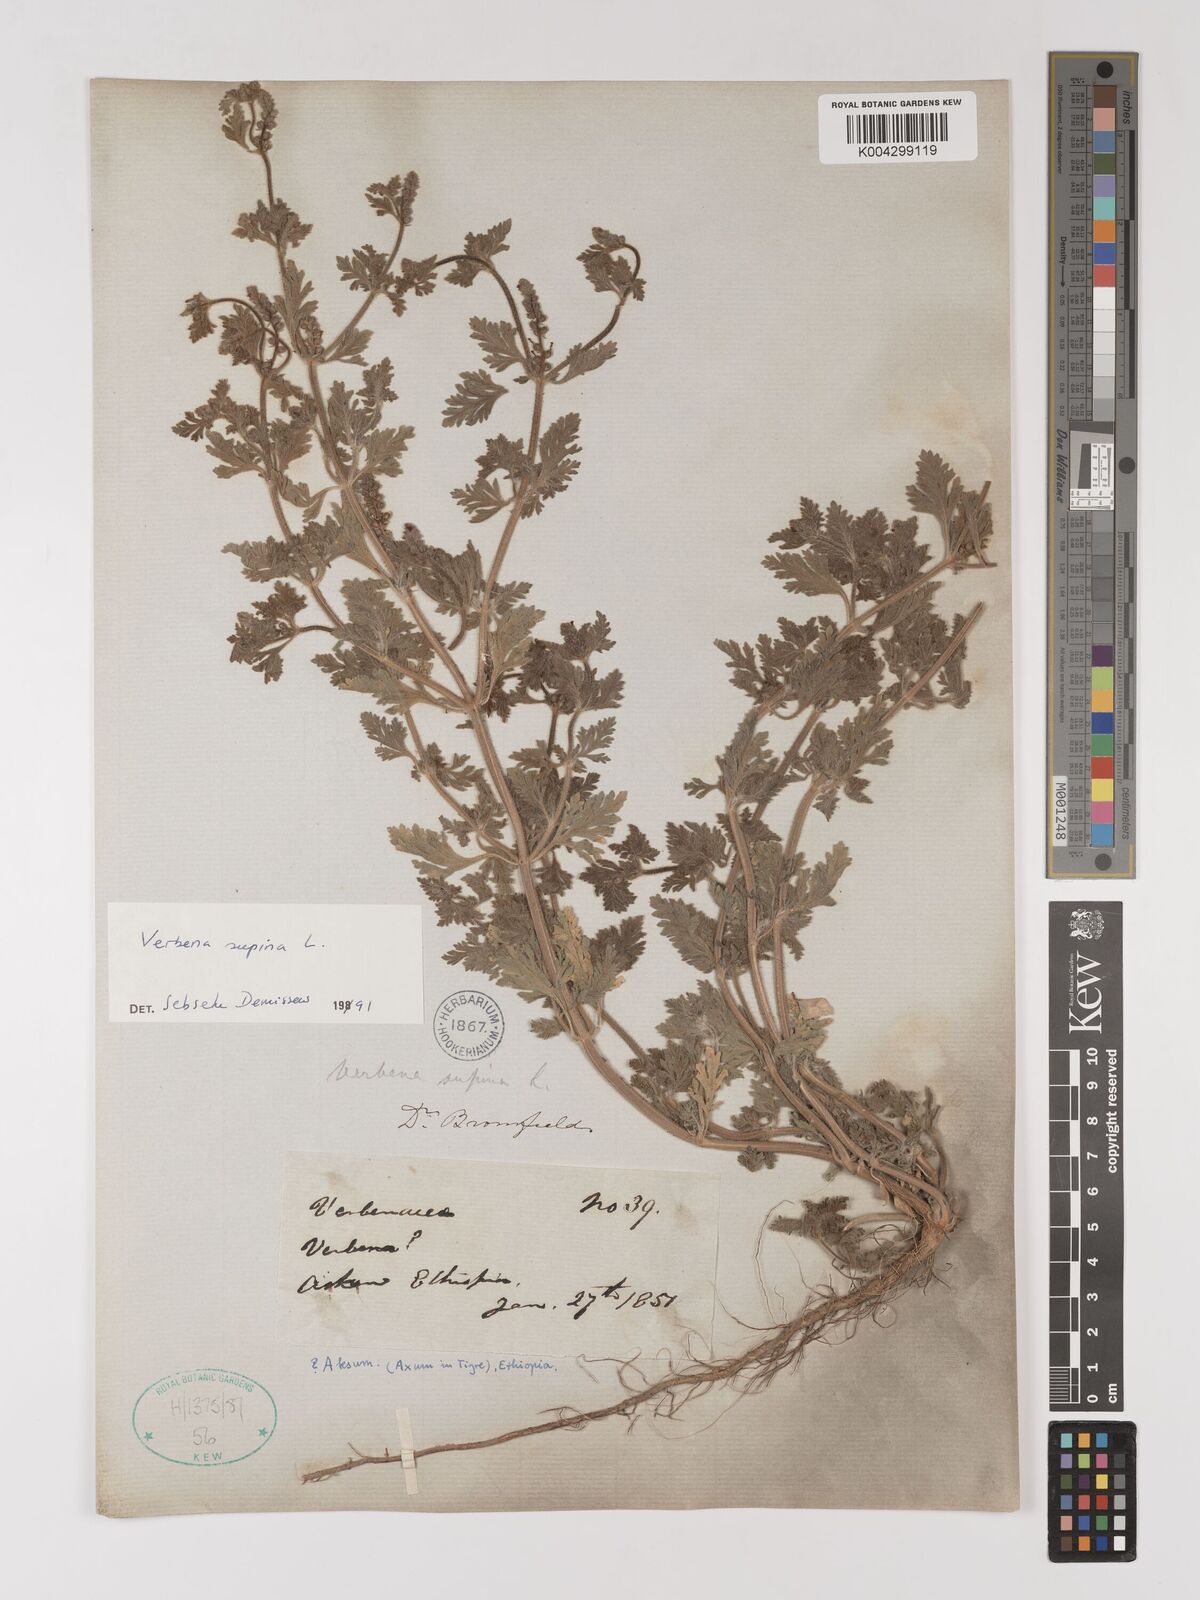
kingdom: Plantae
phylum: Tracheophyta
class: Magnoliopsida
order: Lamiales
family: Verbenaceae
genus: Verbena
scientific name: Verbena supina
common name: Trailing vervain
